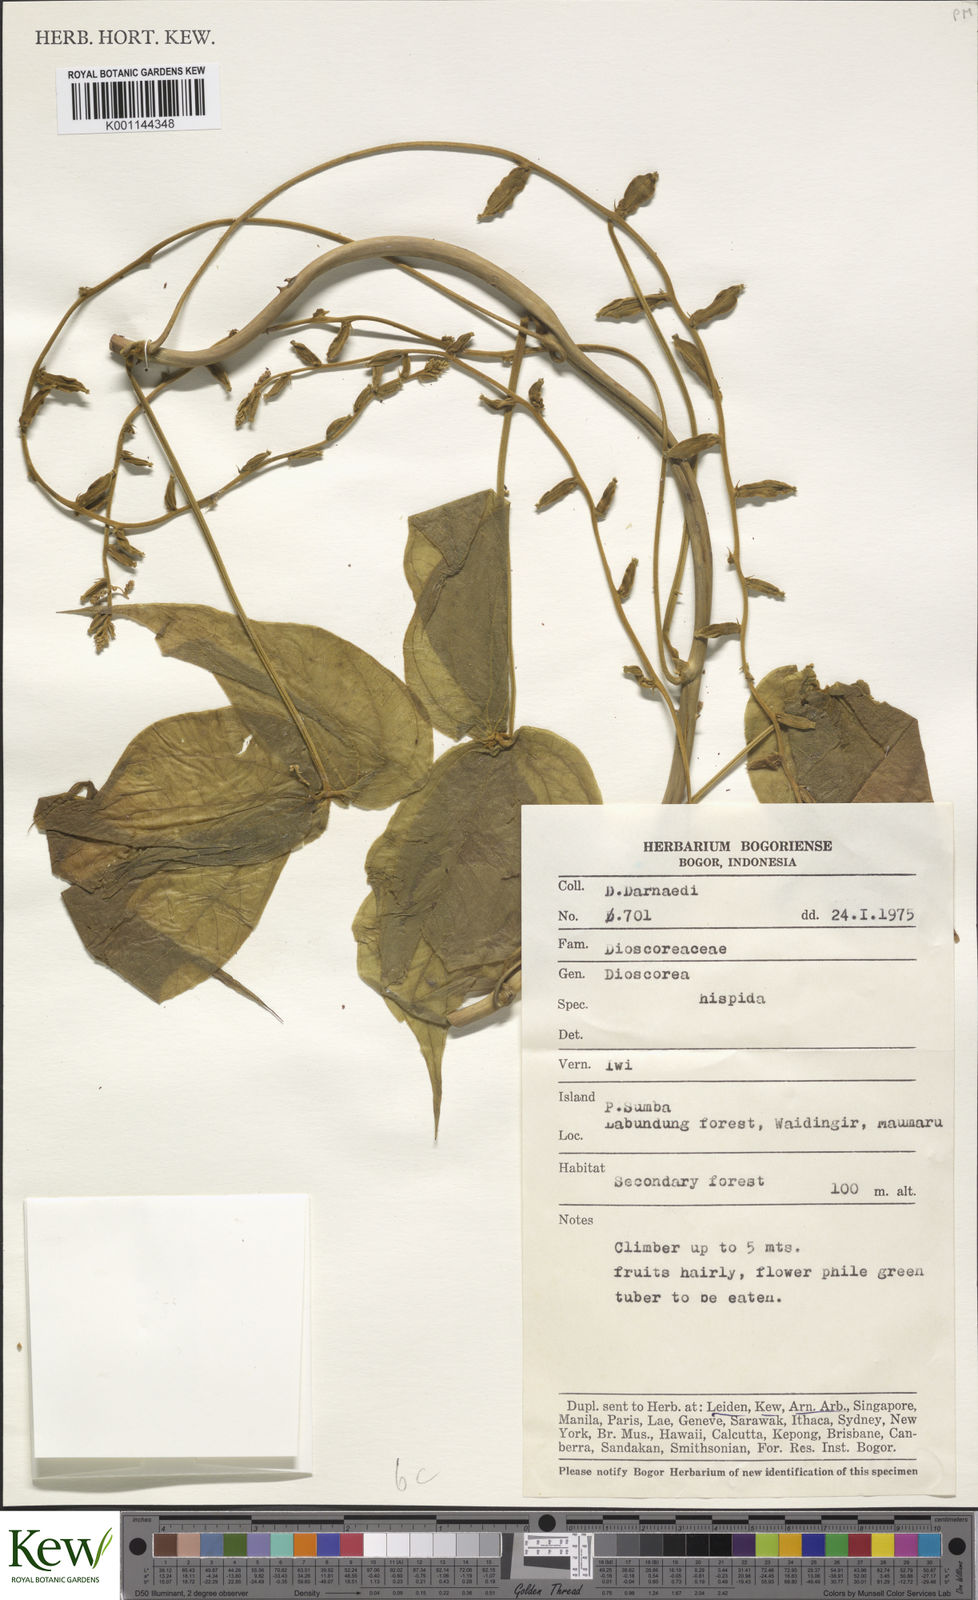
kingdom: Plantae
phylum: Tracheophyta
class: Liliopsida
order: Dioscoreales
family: Dioscoreaceae
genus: Dioscorea
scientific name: Dioscorea hispida
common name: Asiatic bitter yam
